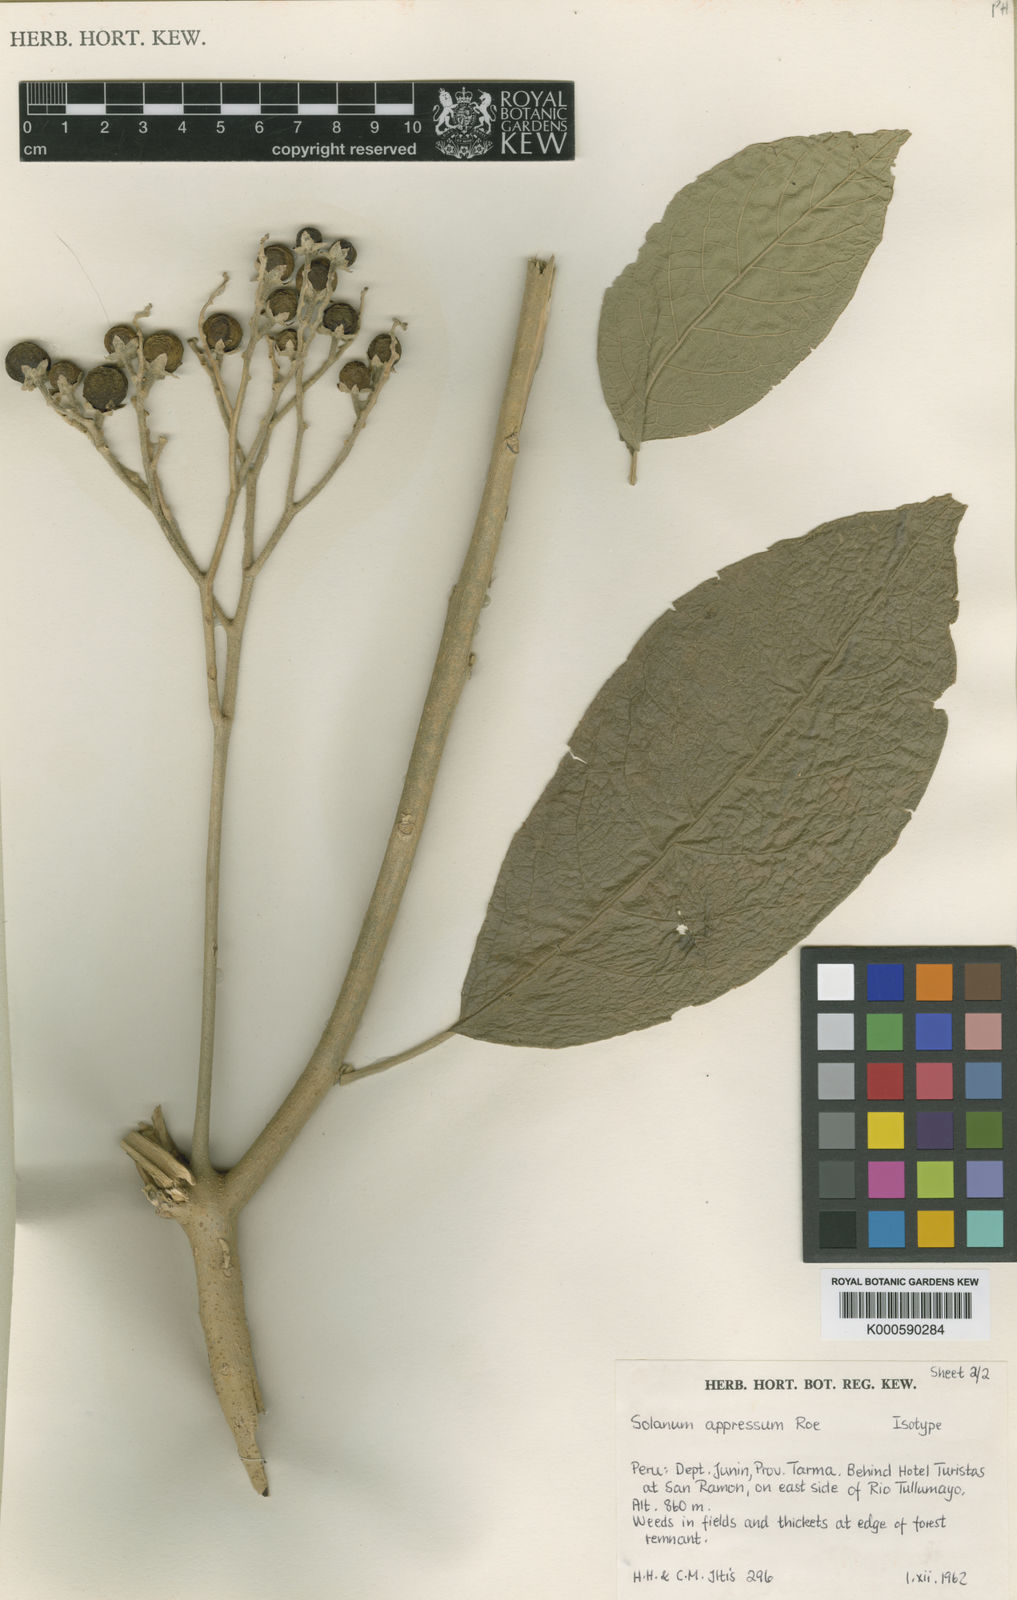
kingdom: Plantae
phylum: Tracheophyta
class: Magnoliopsida
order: Solanales
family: Solanaceae
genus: Solanum
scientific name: Solanum appressum
